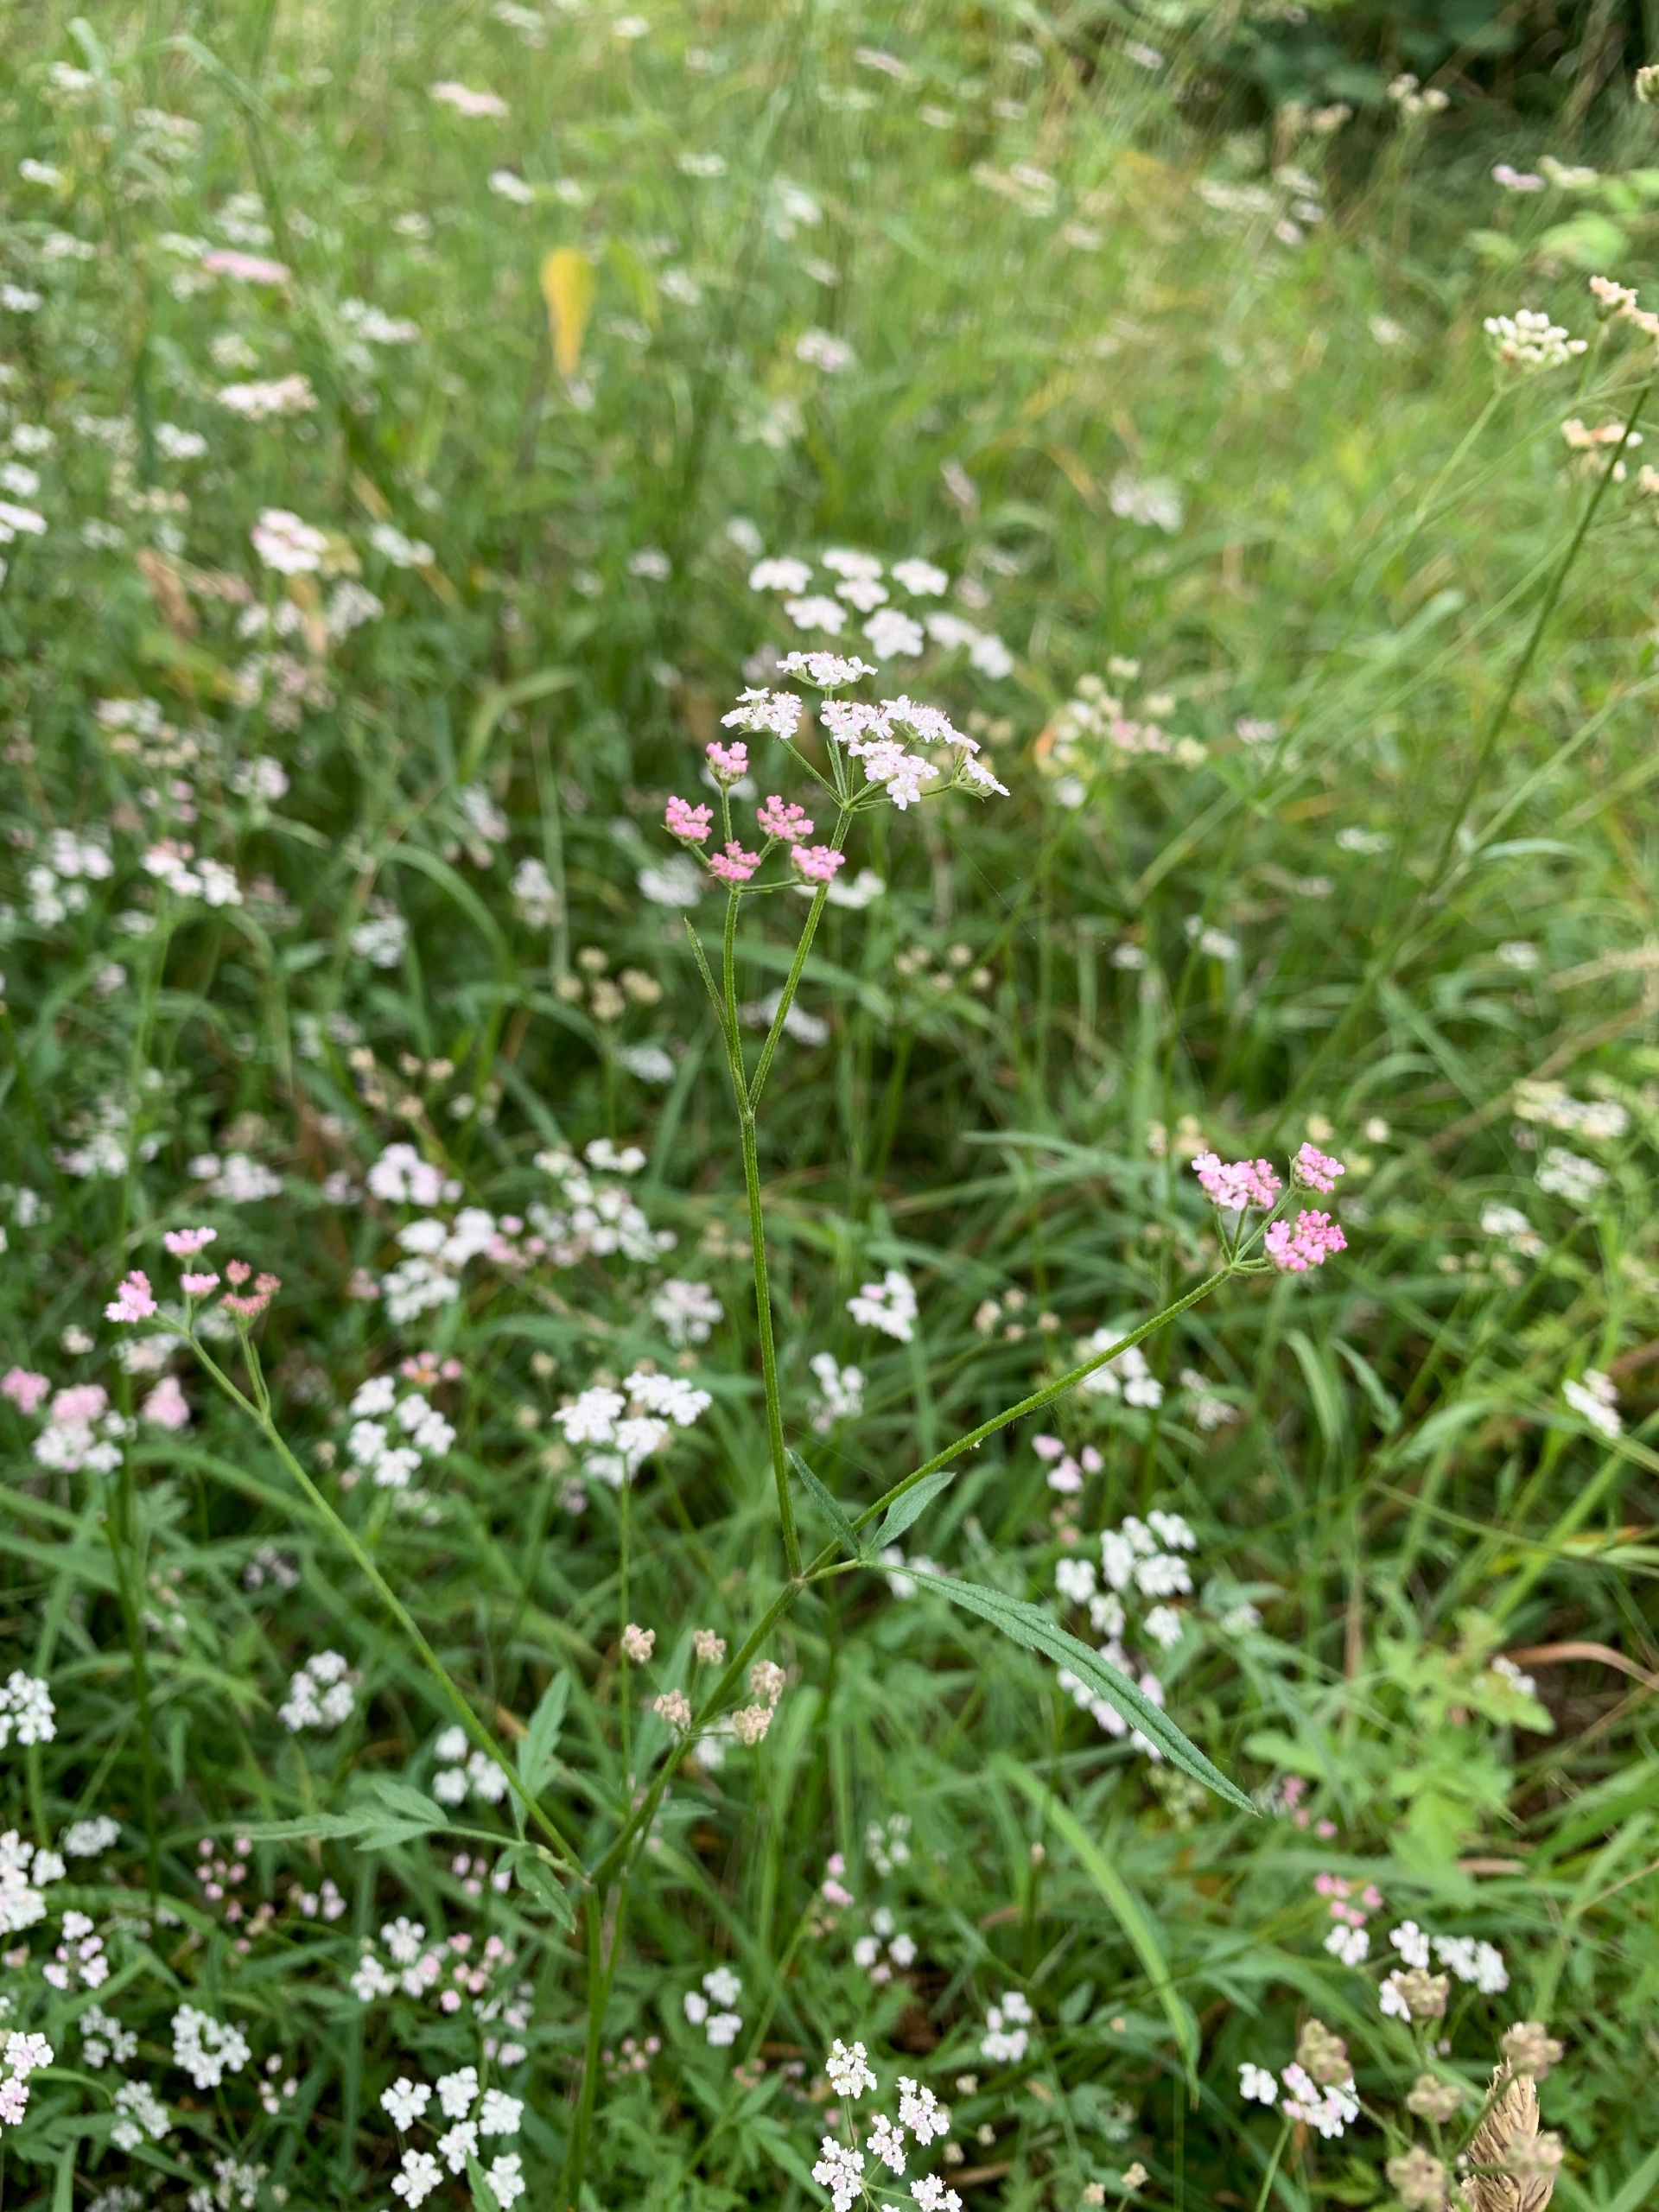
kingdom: Plantae
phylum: Tracheophyta
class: Magnoliopsida
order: Apiales
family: Apiaceae
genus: Torilis
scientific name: Torilis japonica
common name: Hvas randfrø
